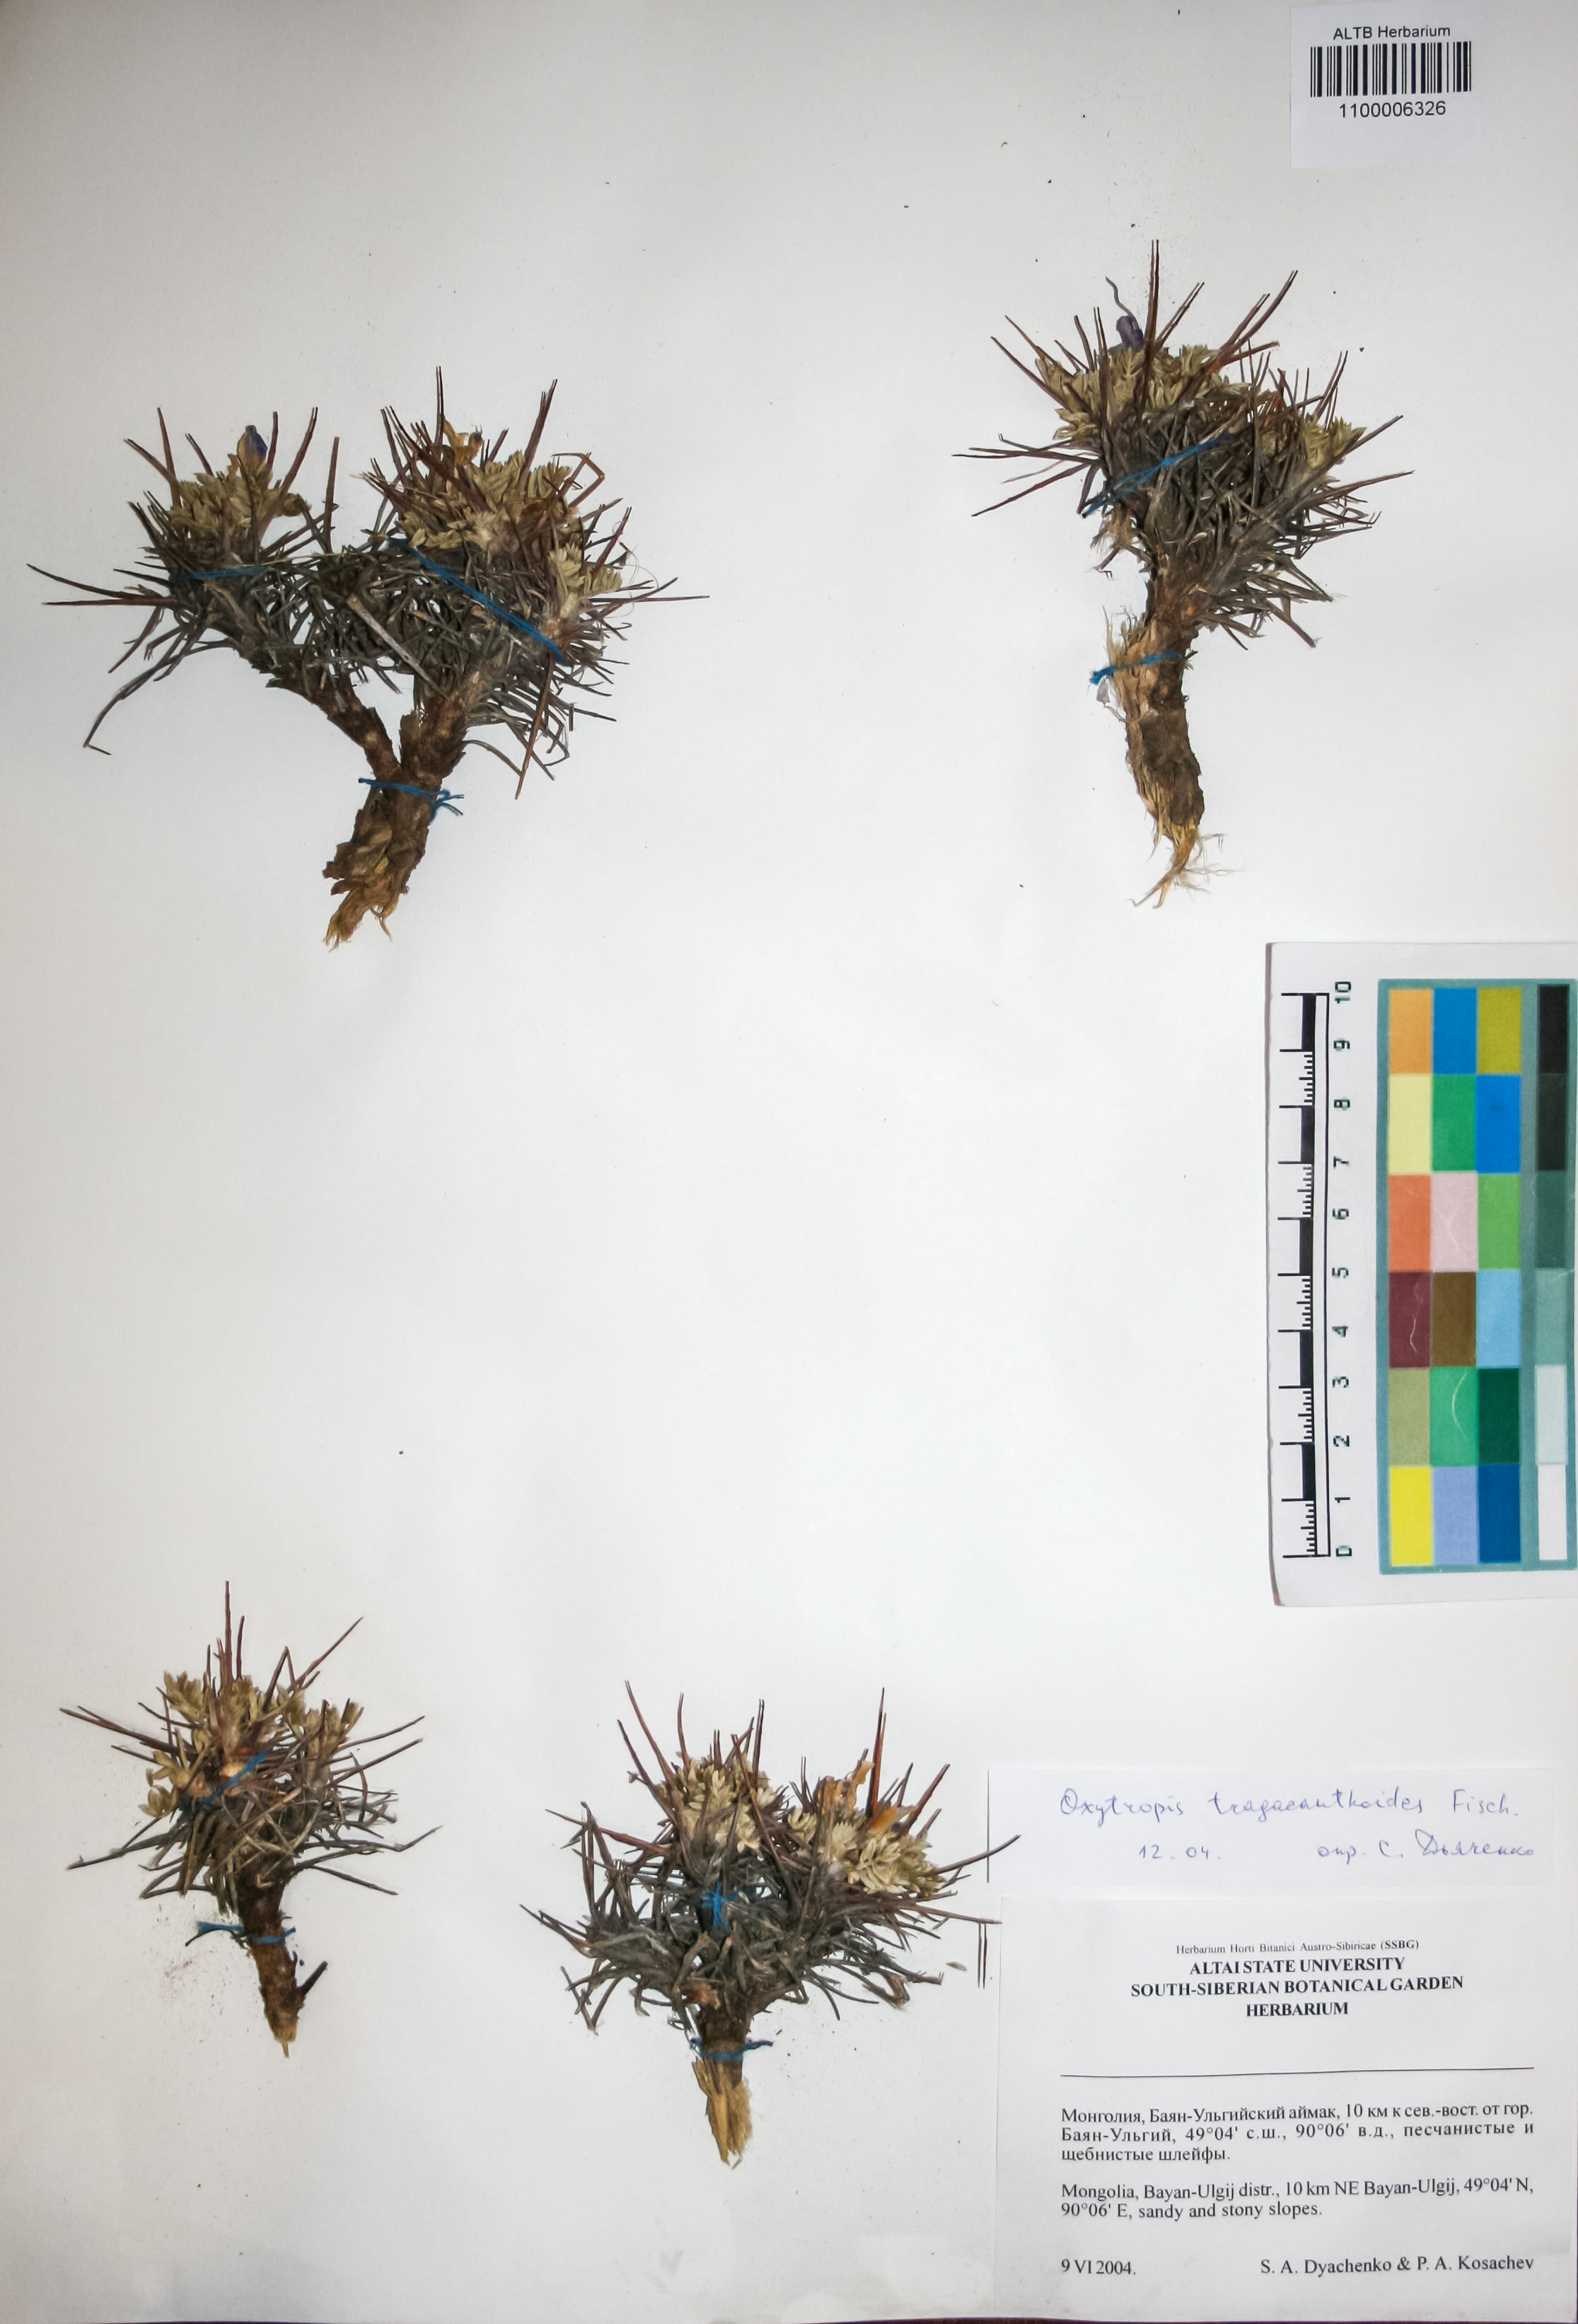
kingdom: Plantae
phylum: Tracheophyta
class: Magnoliopsida
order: Fabales
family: Fabaceae
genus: Oxytropis
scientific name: Oxytropis tragacanthoides
